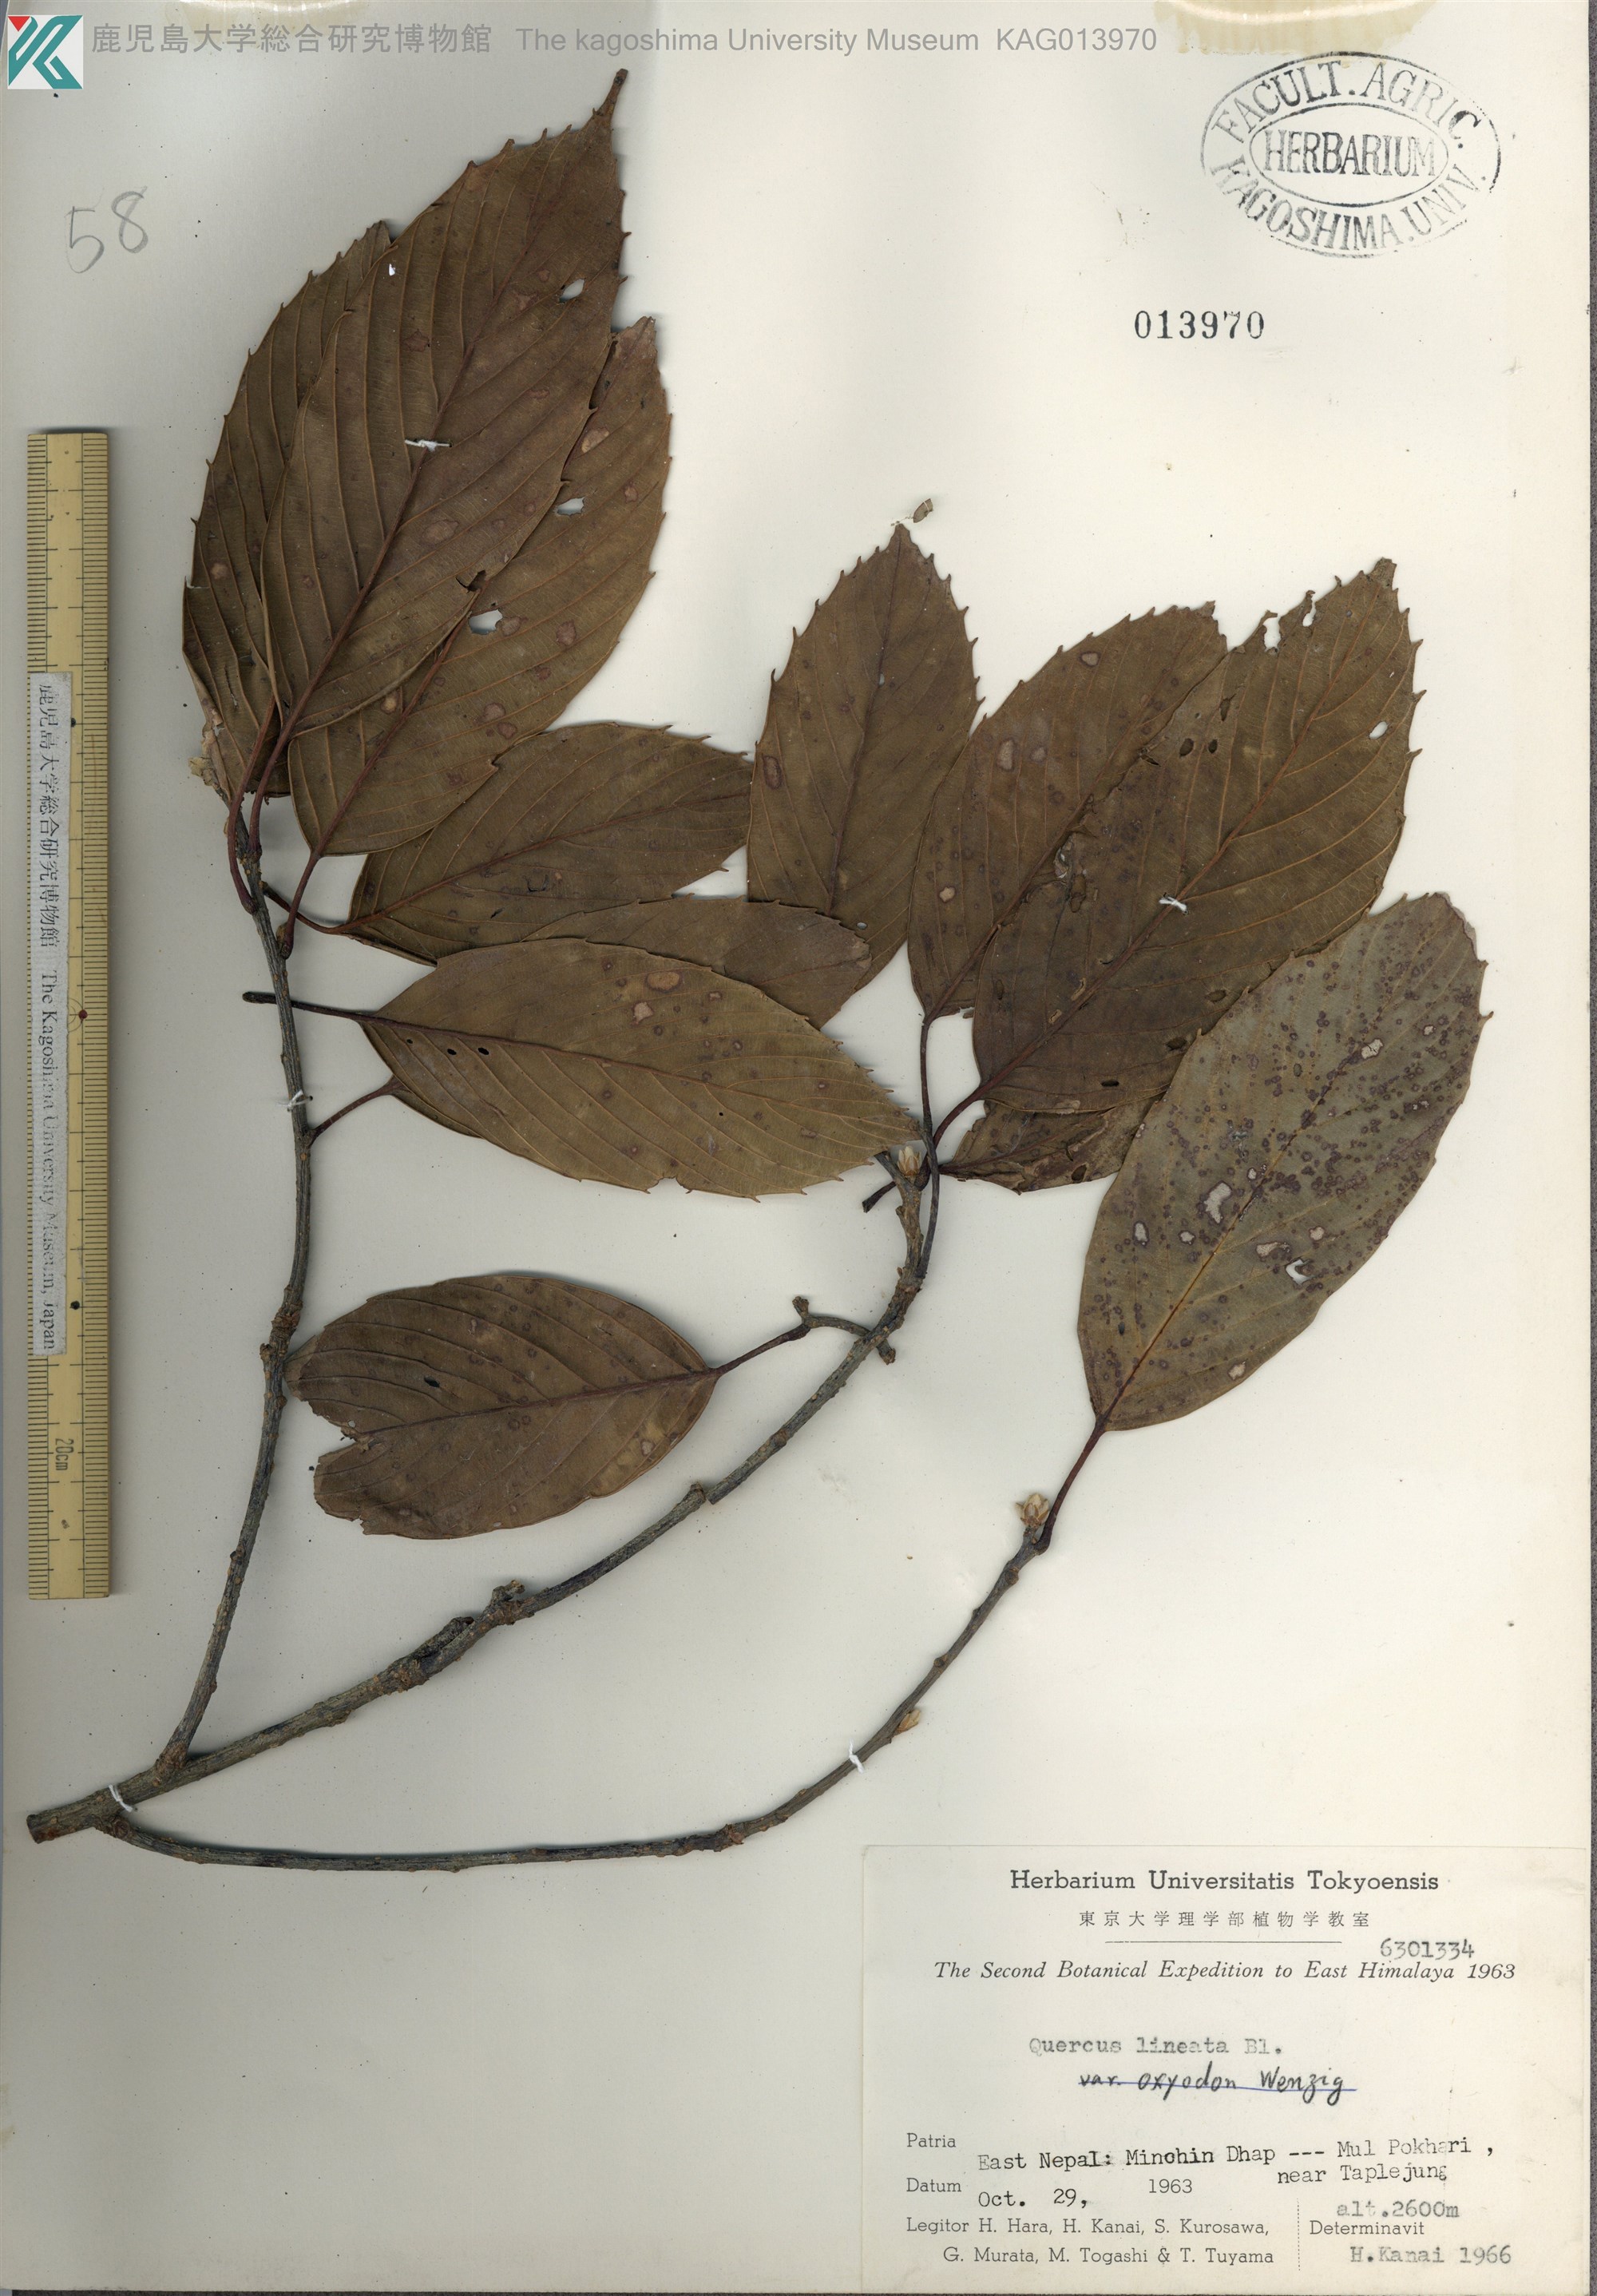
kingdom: Plantae
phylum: Tracheophyta
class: Magnoliopsida
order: Fagales
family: Fagaceae
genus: Quercus
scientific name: Quercus lineata
